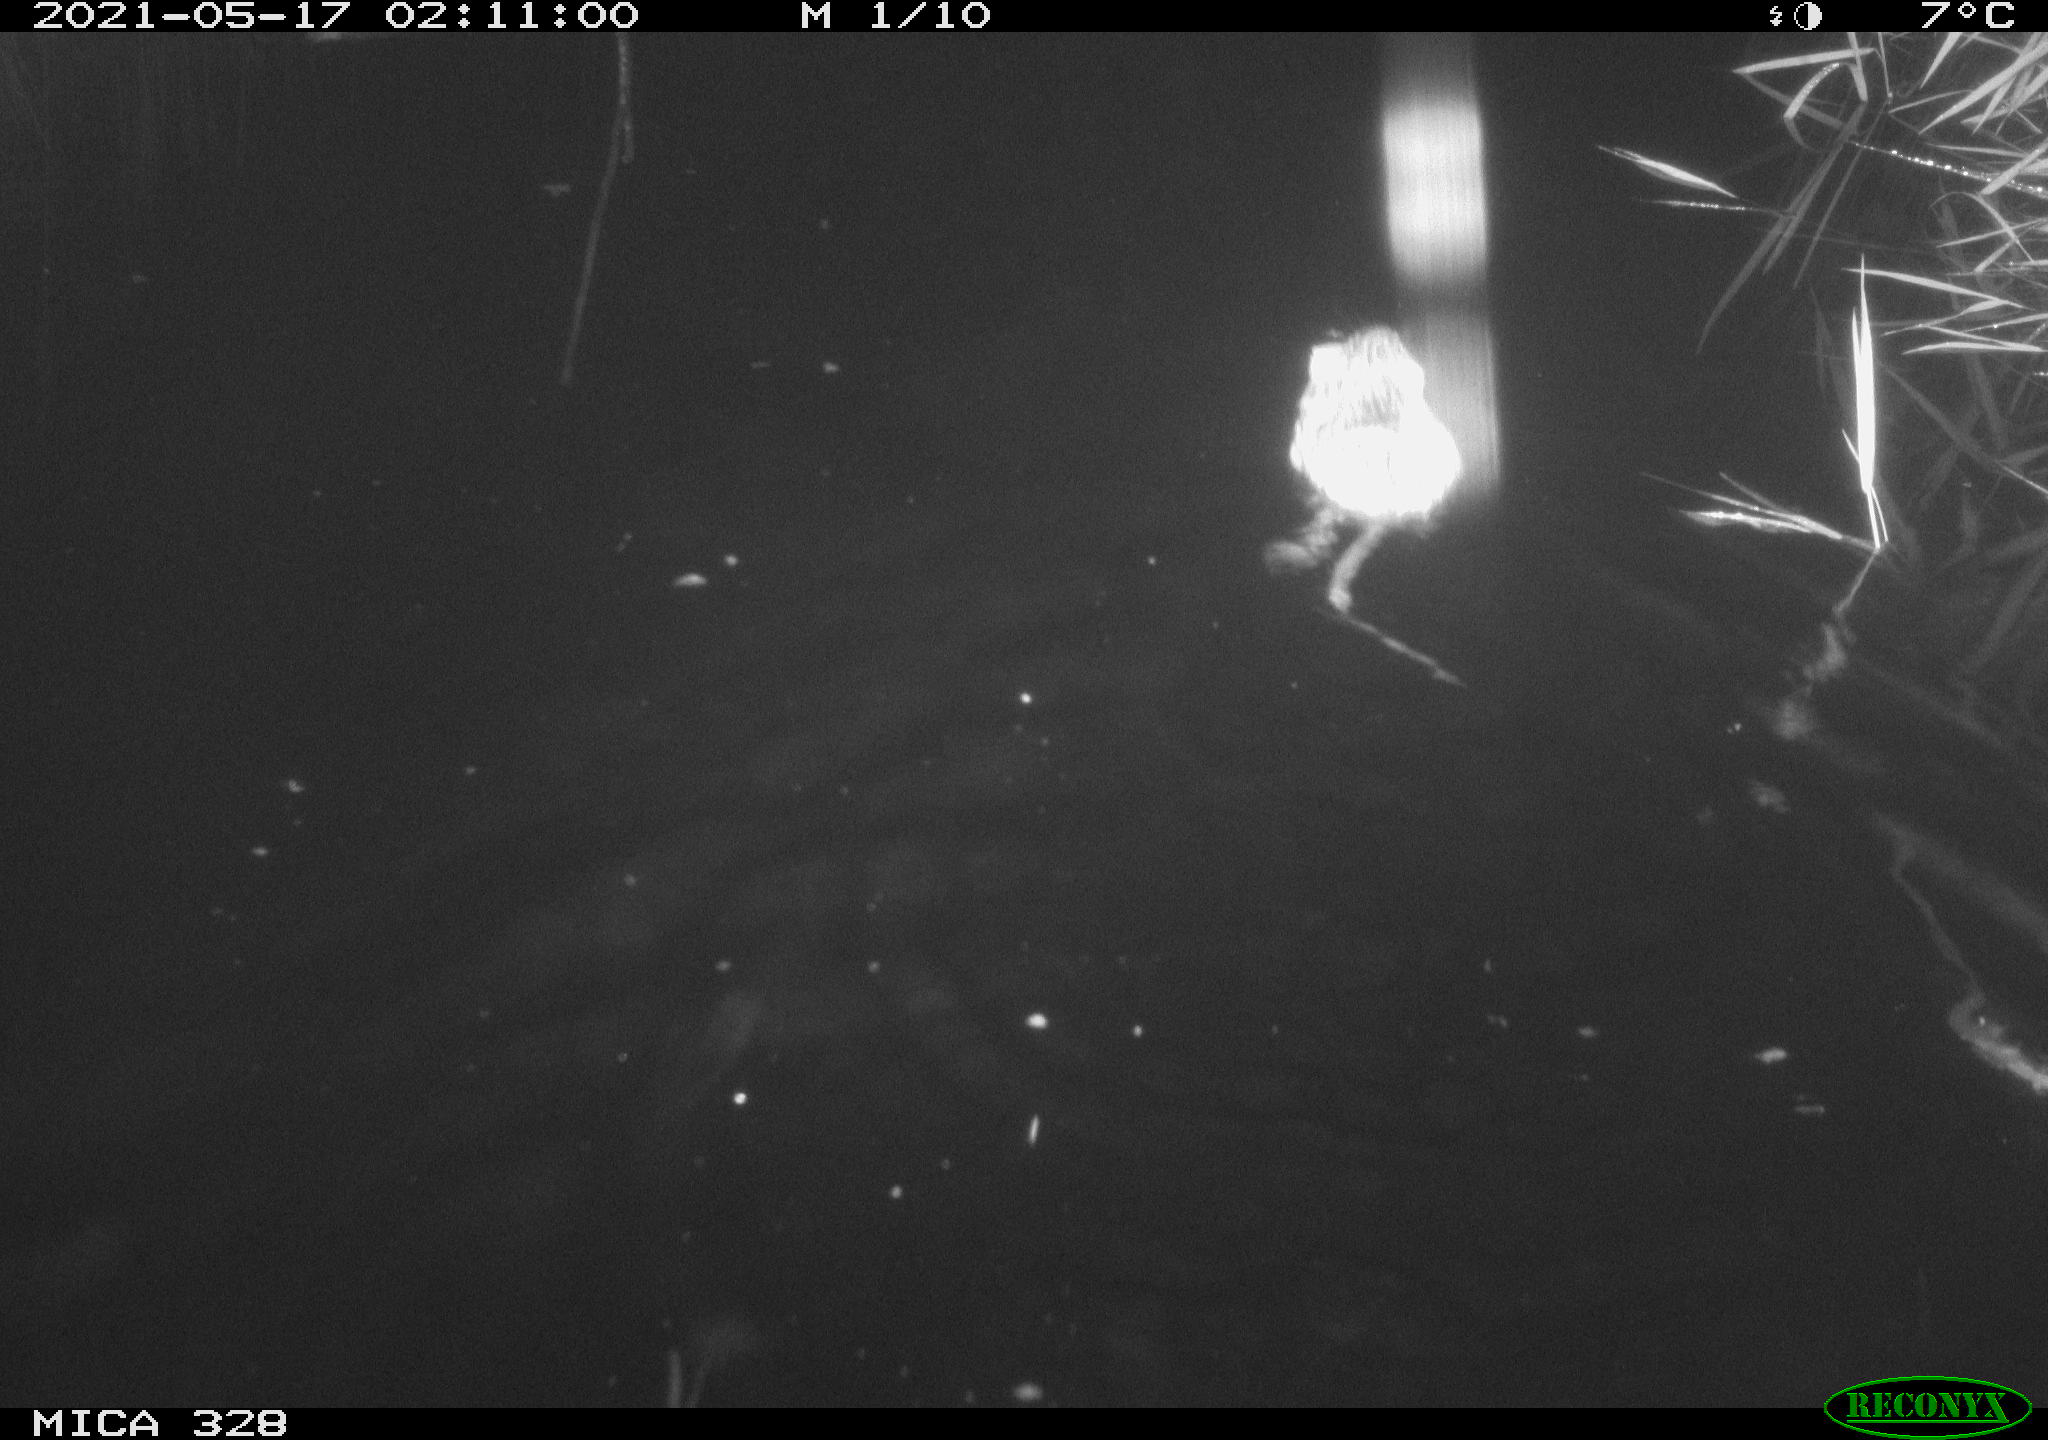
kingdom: Animalia
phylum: Chordata
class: Mammalia
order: Rodentia
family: Cricetidae
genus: Ondatra
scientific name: Ondatra zibethicus
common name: Muskrat
